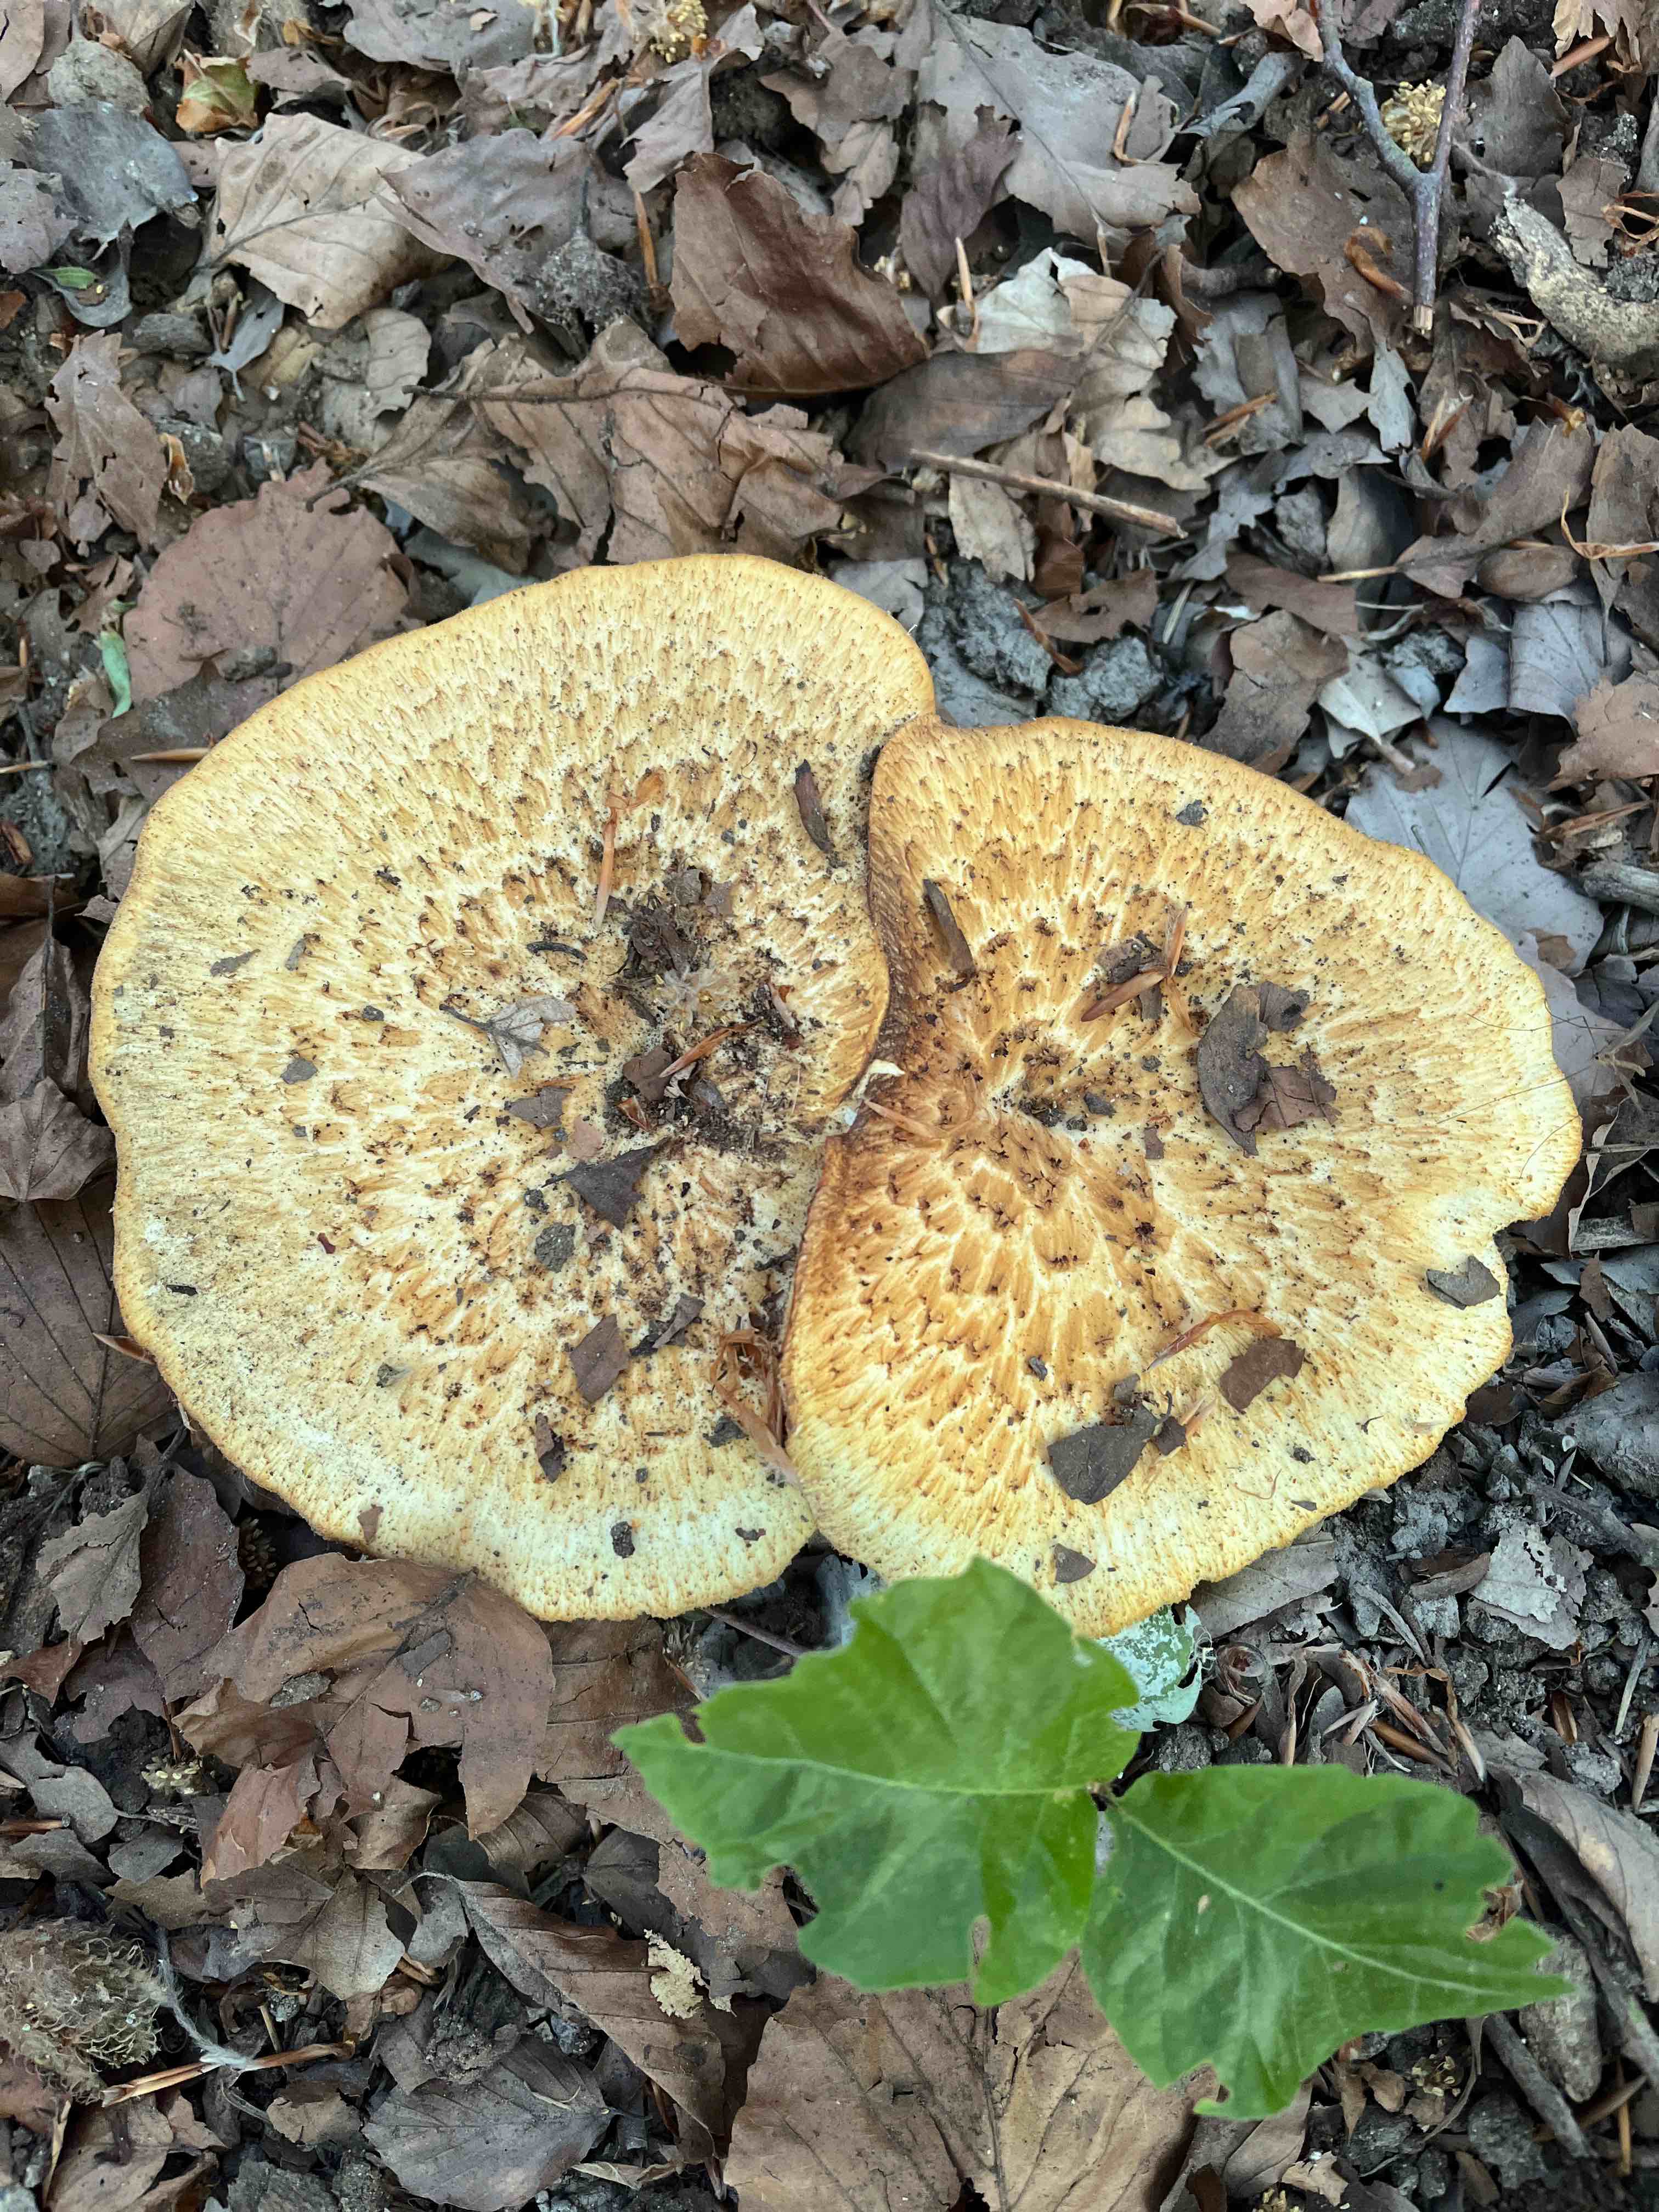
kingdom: Fungi
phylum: Basidiomycota
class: Agaricomycetes
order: Polyporales
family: Polyporaceae
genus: Polyporus
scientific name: Polyporus tuberaster
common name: knoldet stilkporesvamp
